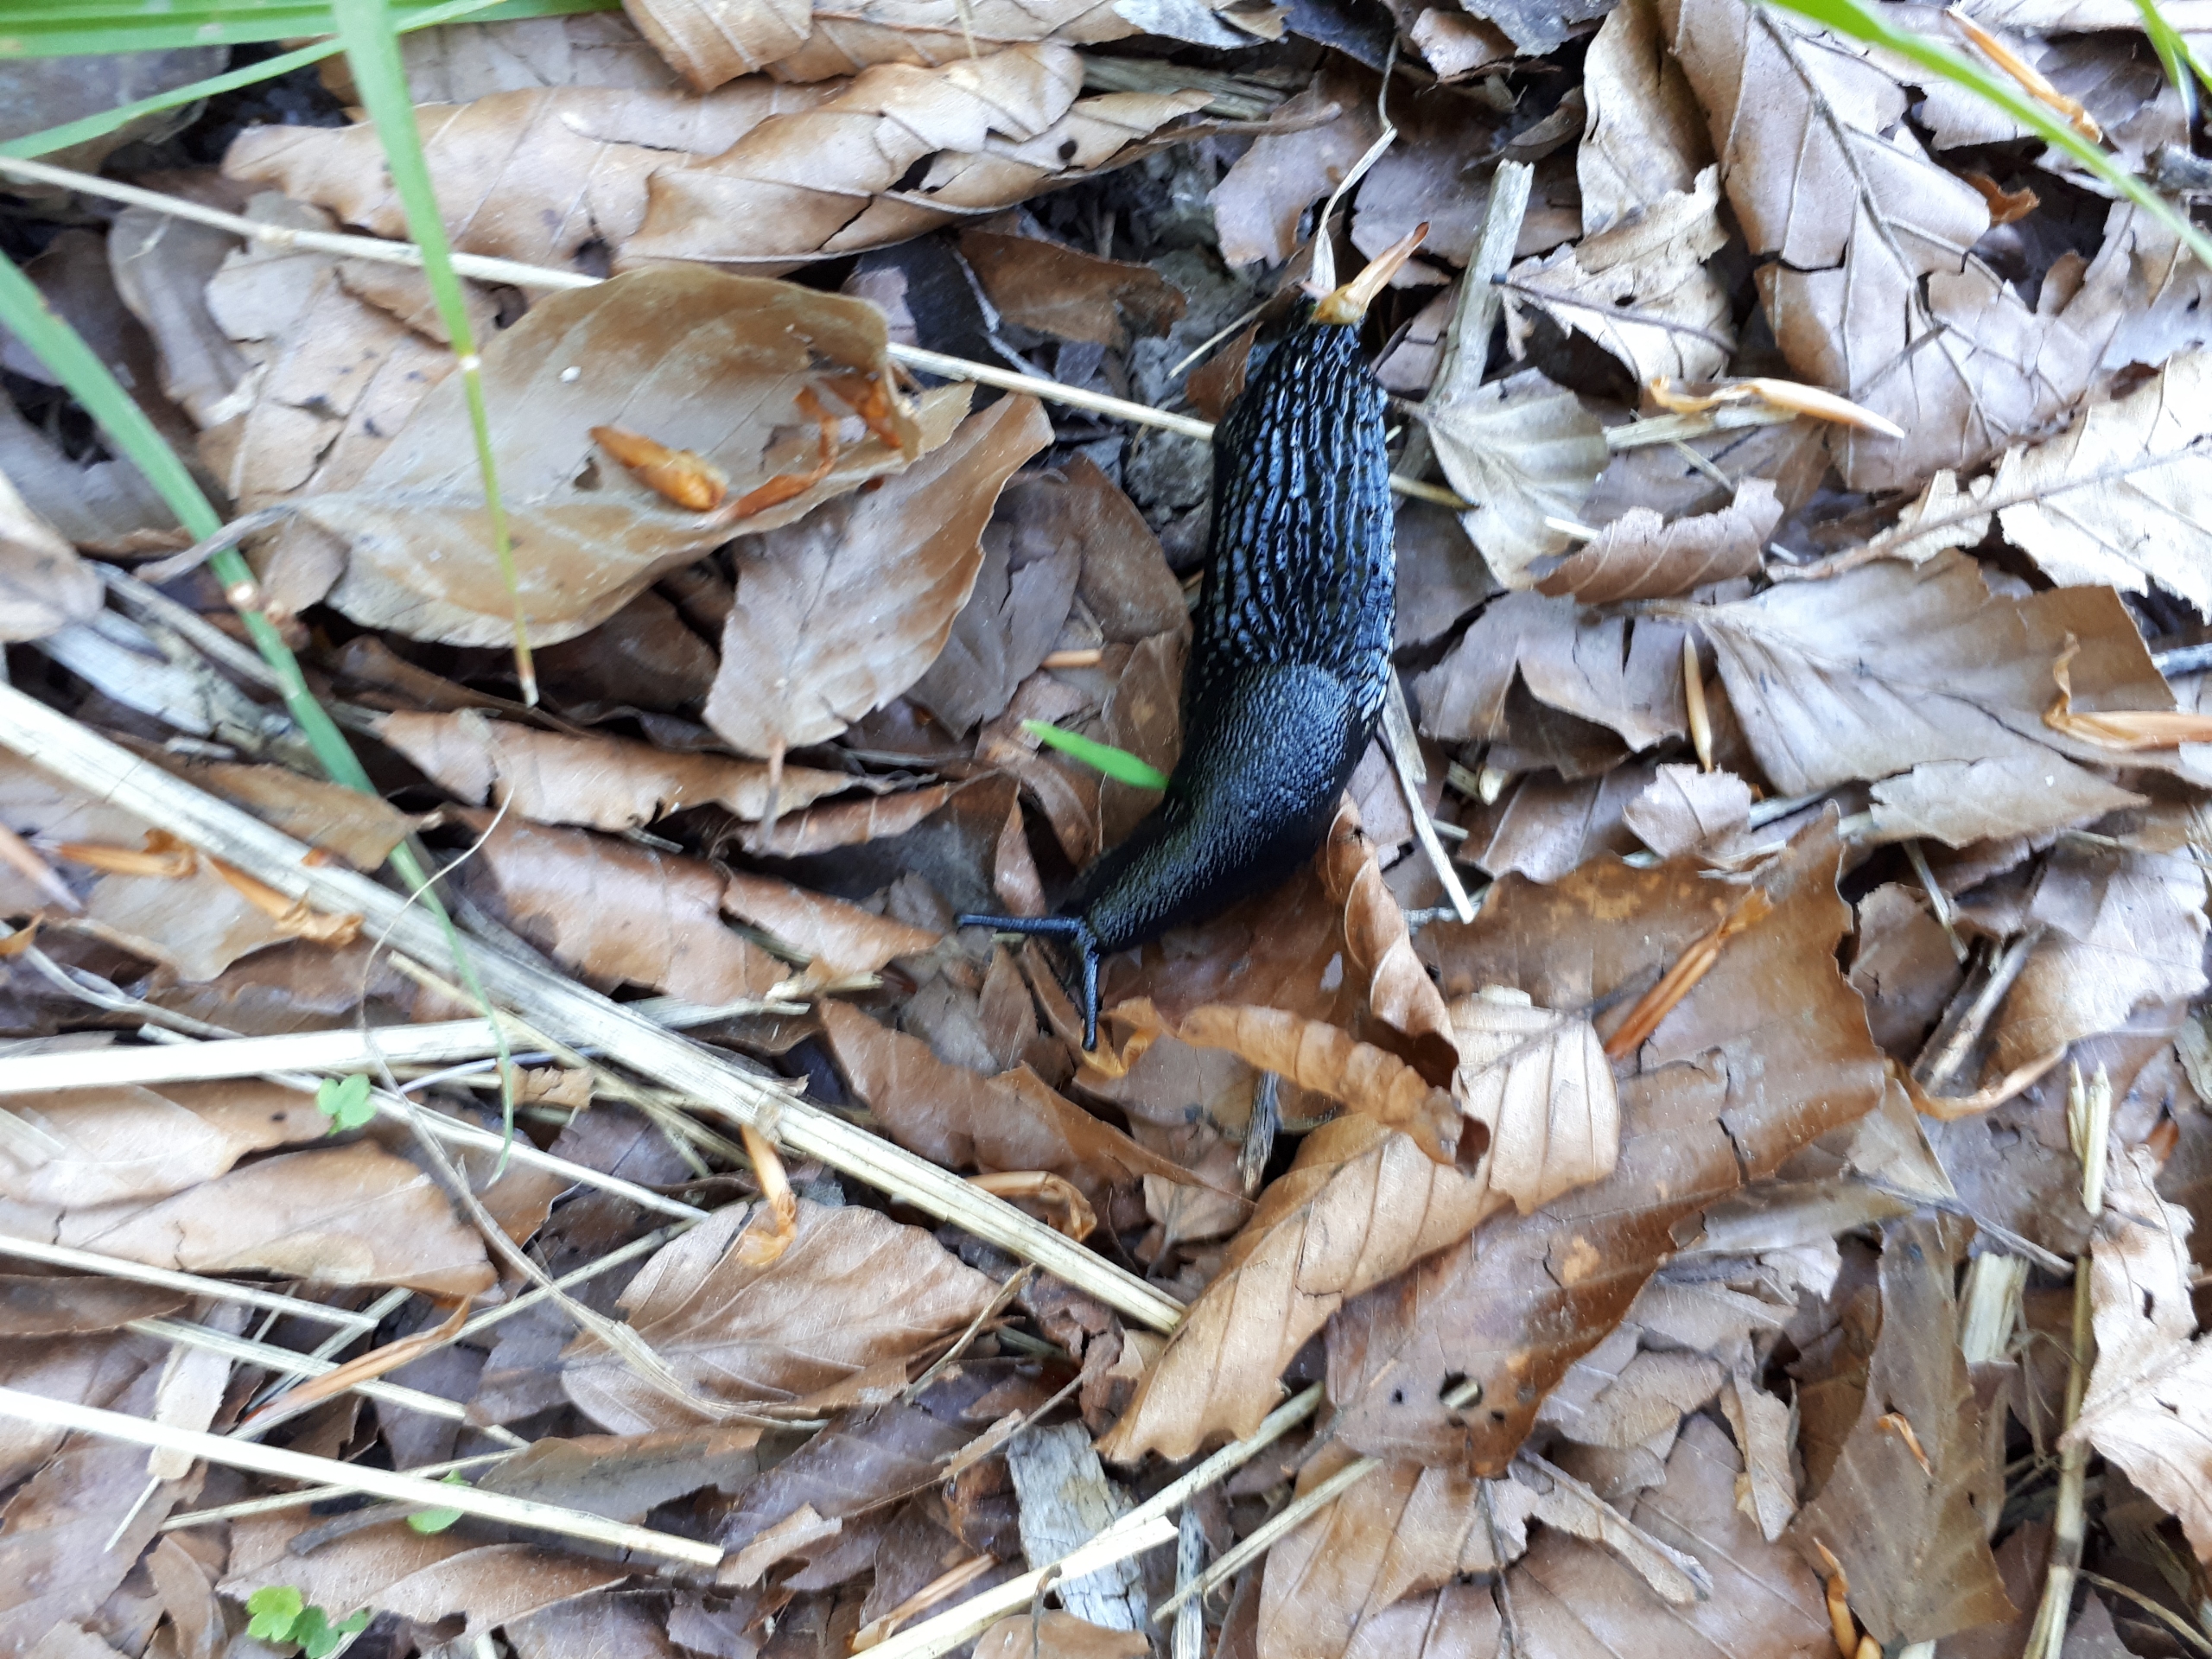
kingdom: Animalia
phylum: Mollusca
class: Gastropoda
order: Stylommatophora
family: Arionidae
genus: Arion
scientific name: Arion ater
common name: Sort skovsnegl
